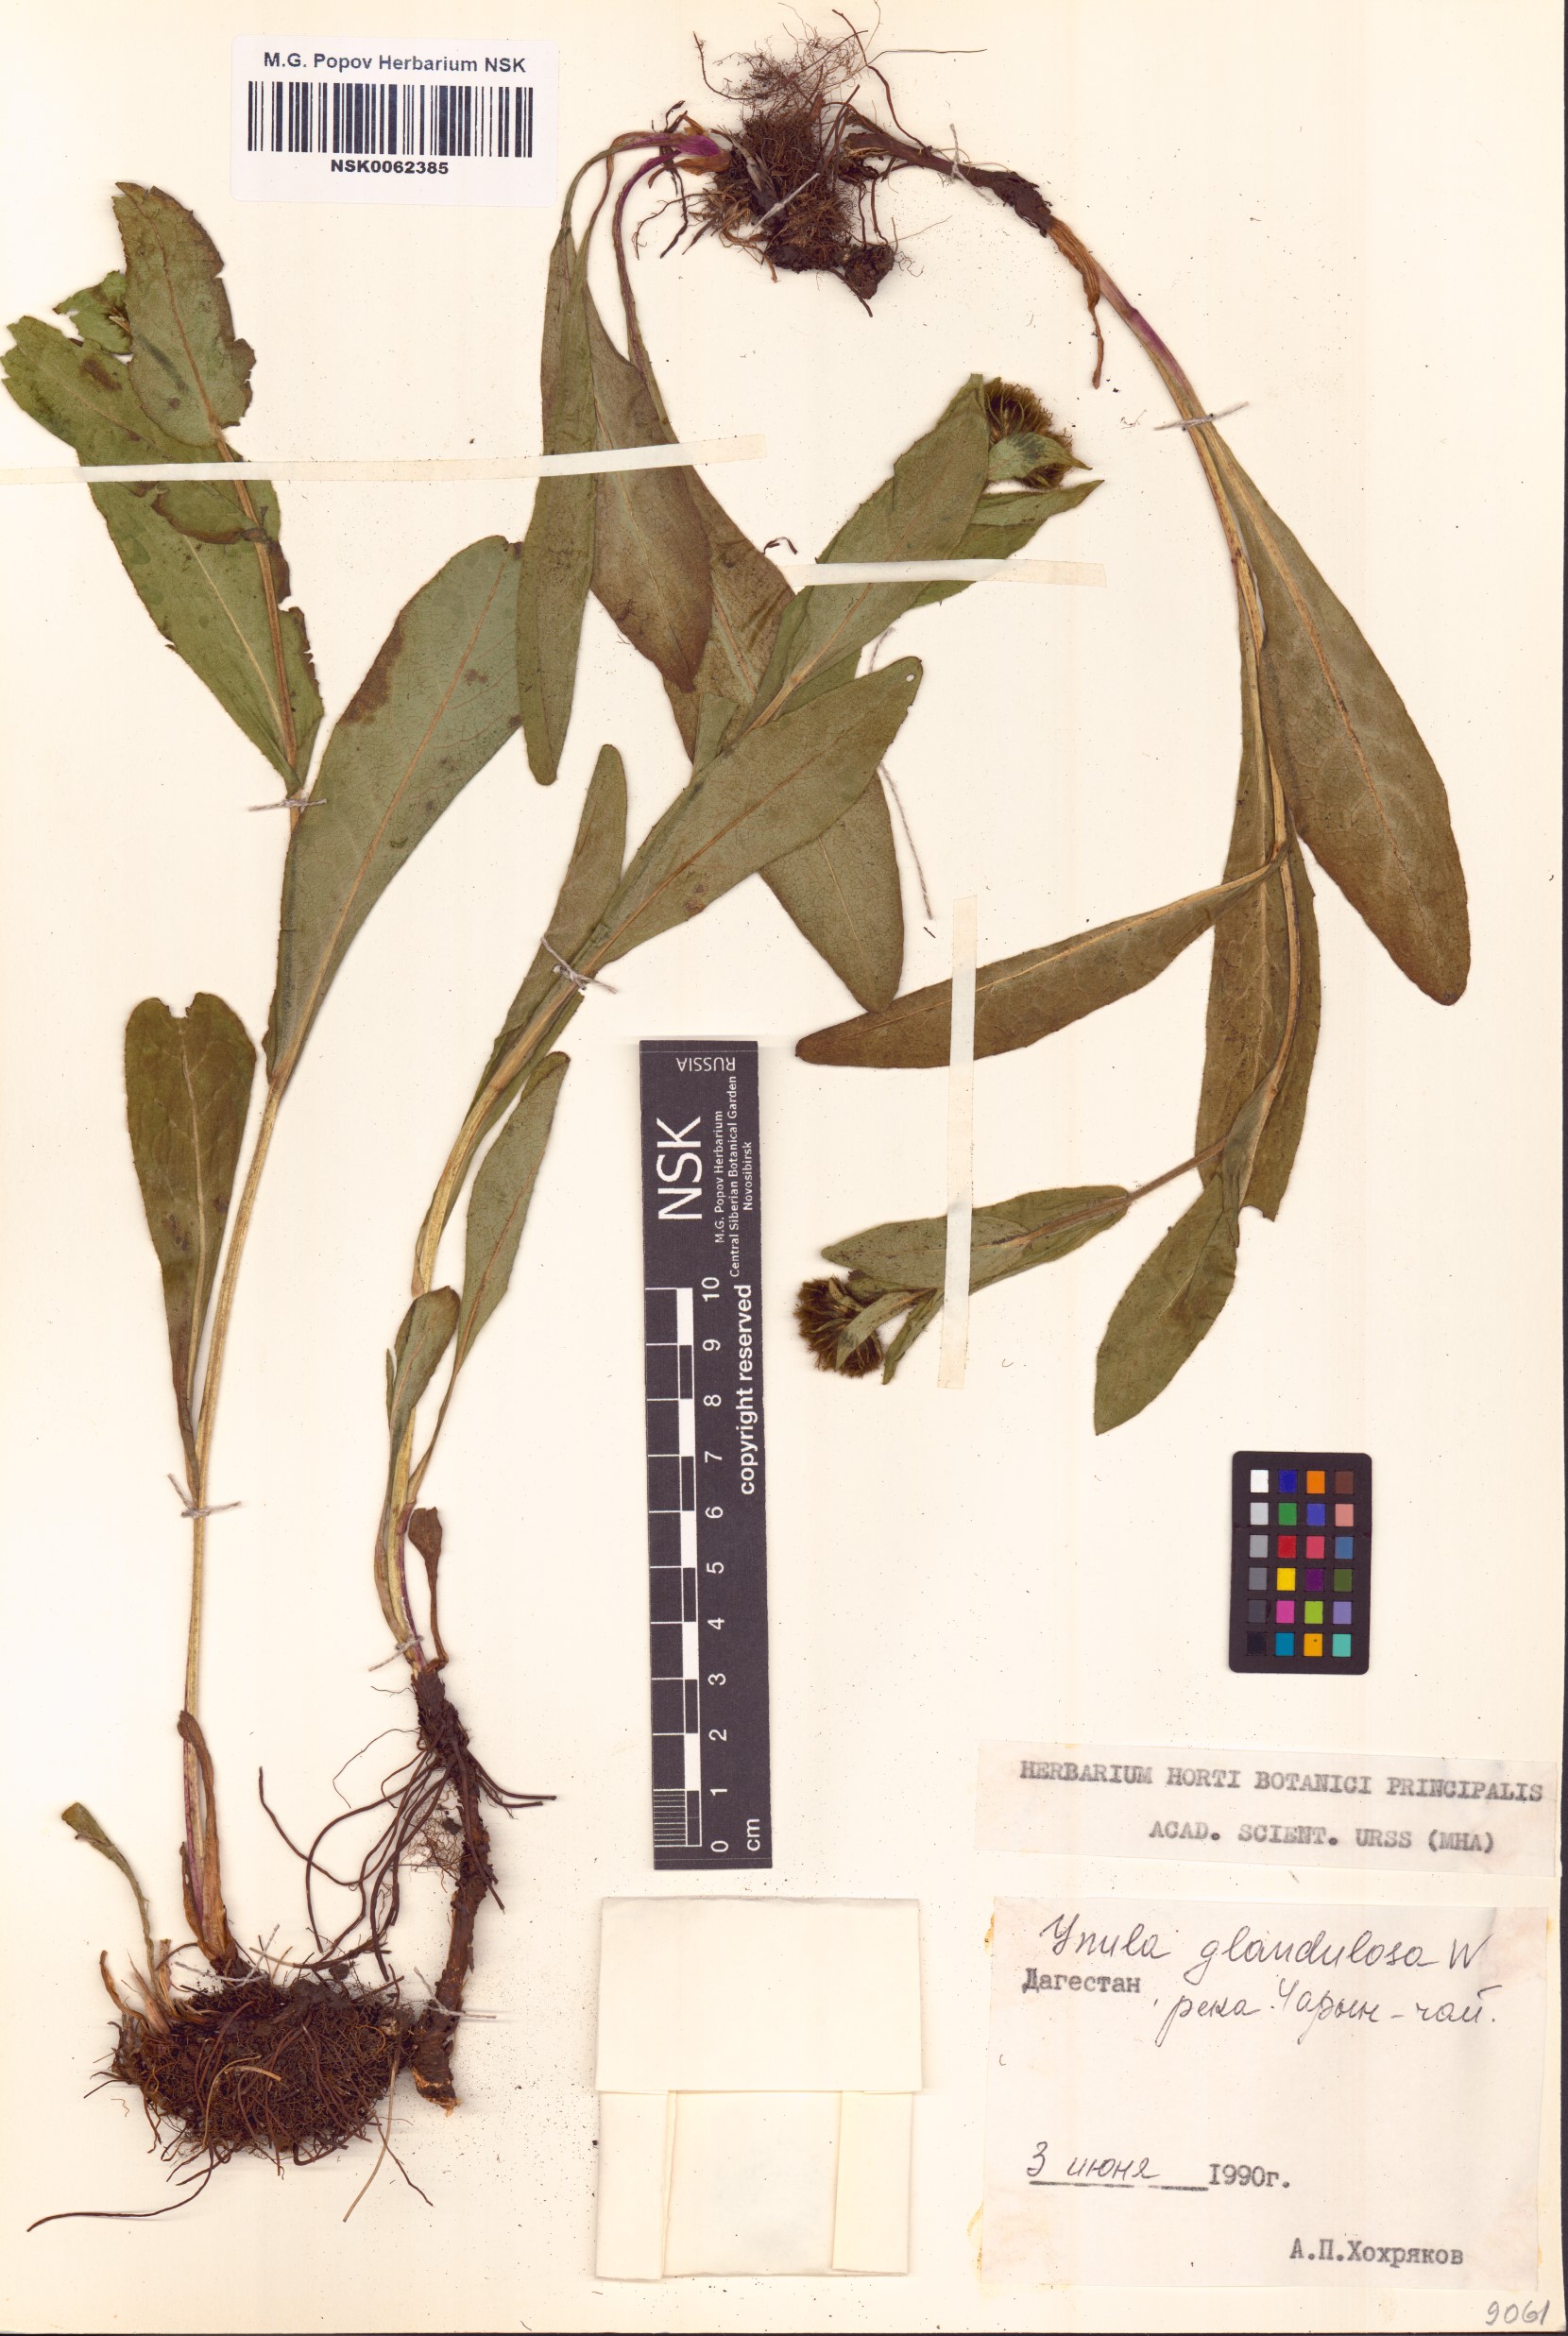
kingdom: Plantae
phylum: Tracheophyta
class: Magnoliopsida
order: Asterales
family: Asteraceae
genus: Pentanema
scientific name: Pentanema orientale
